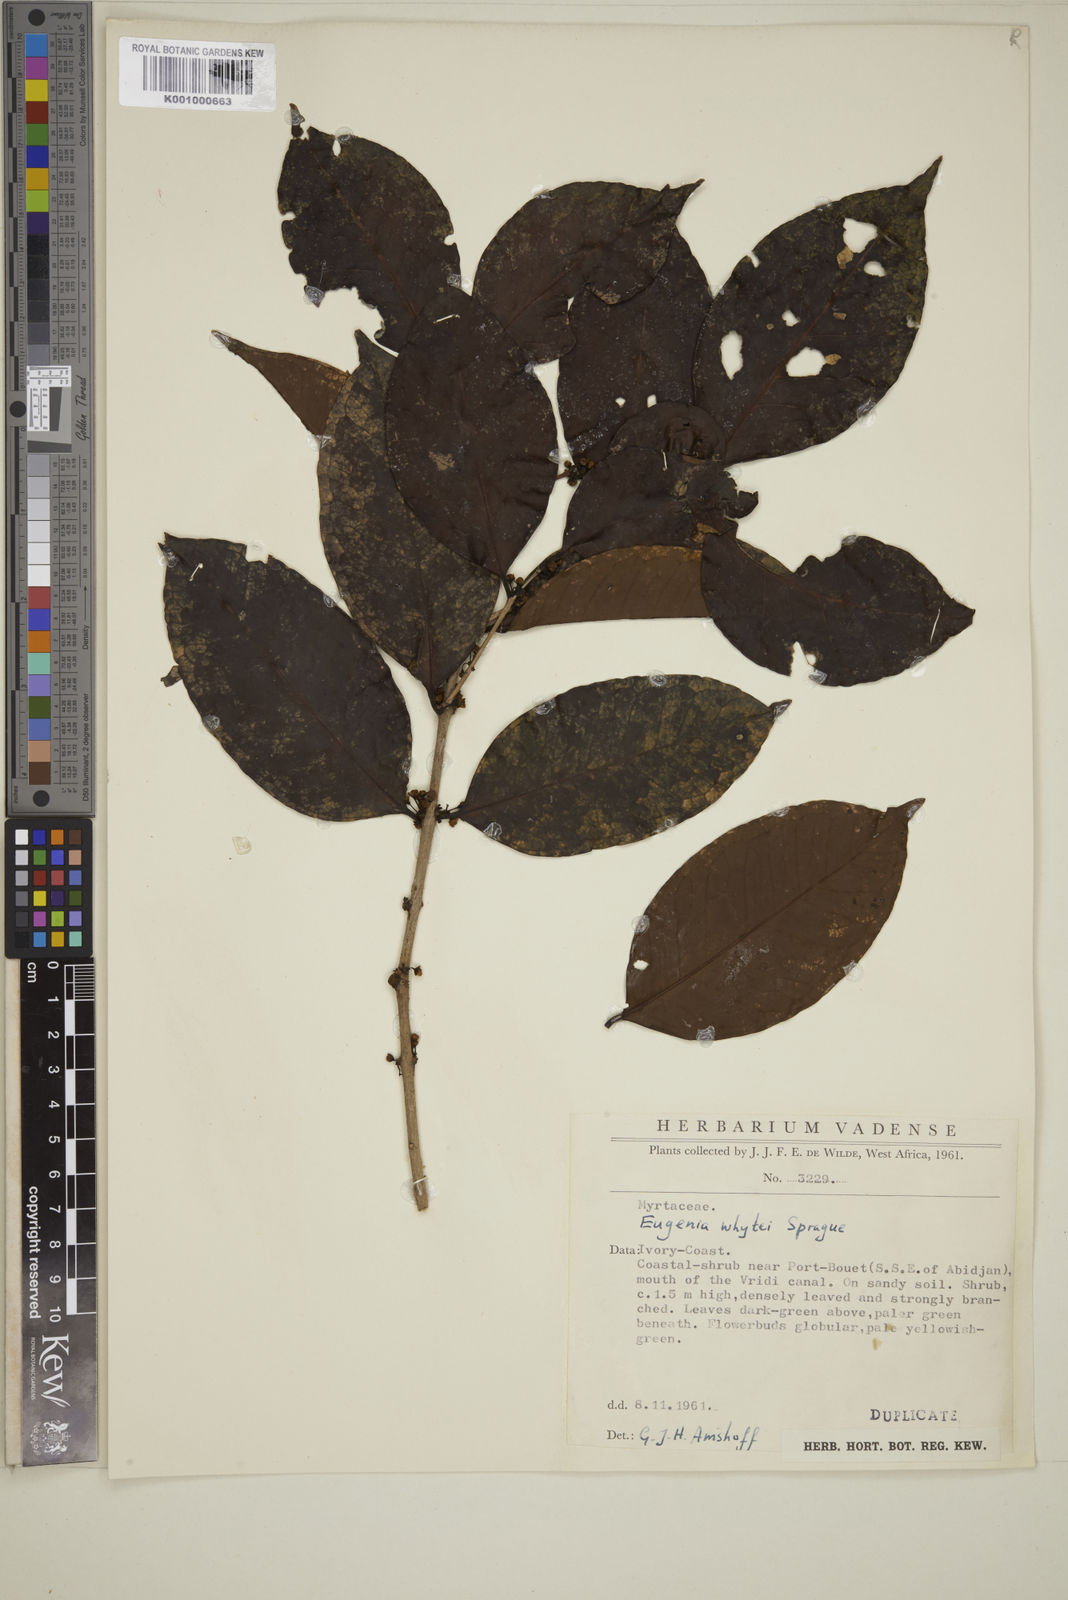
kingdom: Plantae
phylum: Tracheophyta
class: Magnoliopsida
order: Myrtales
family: Myrtaceae
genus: Eugenia
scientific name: Eugenia whytei
